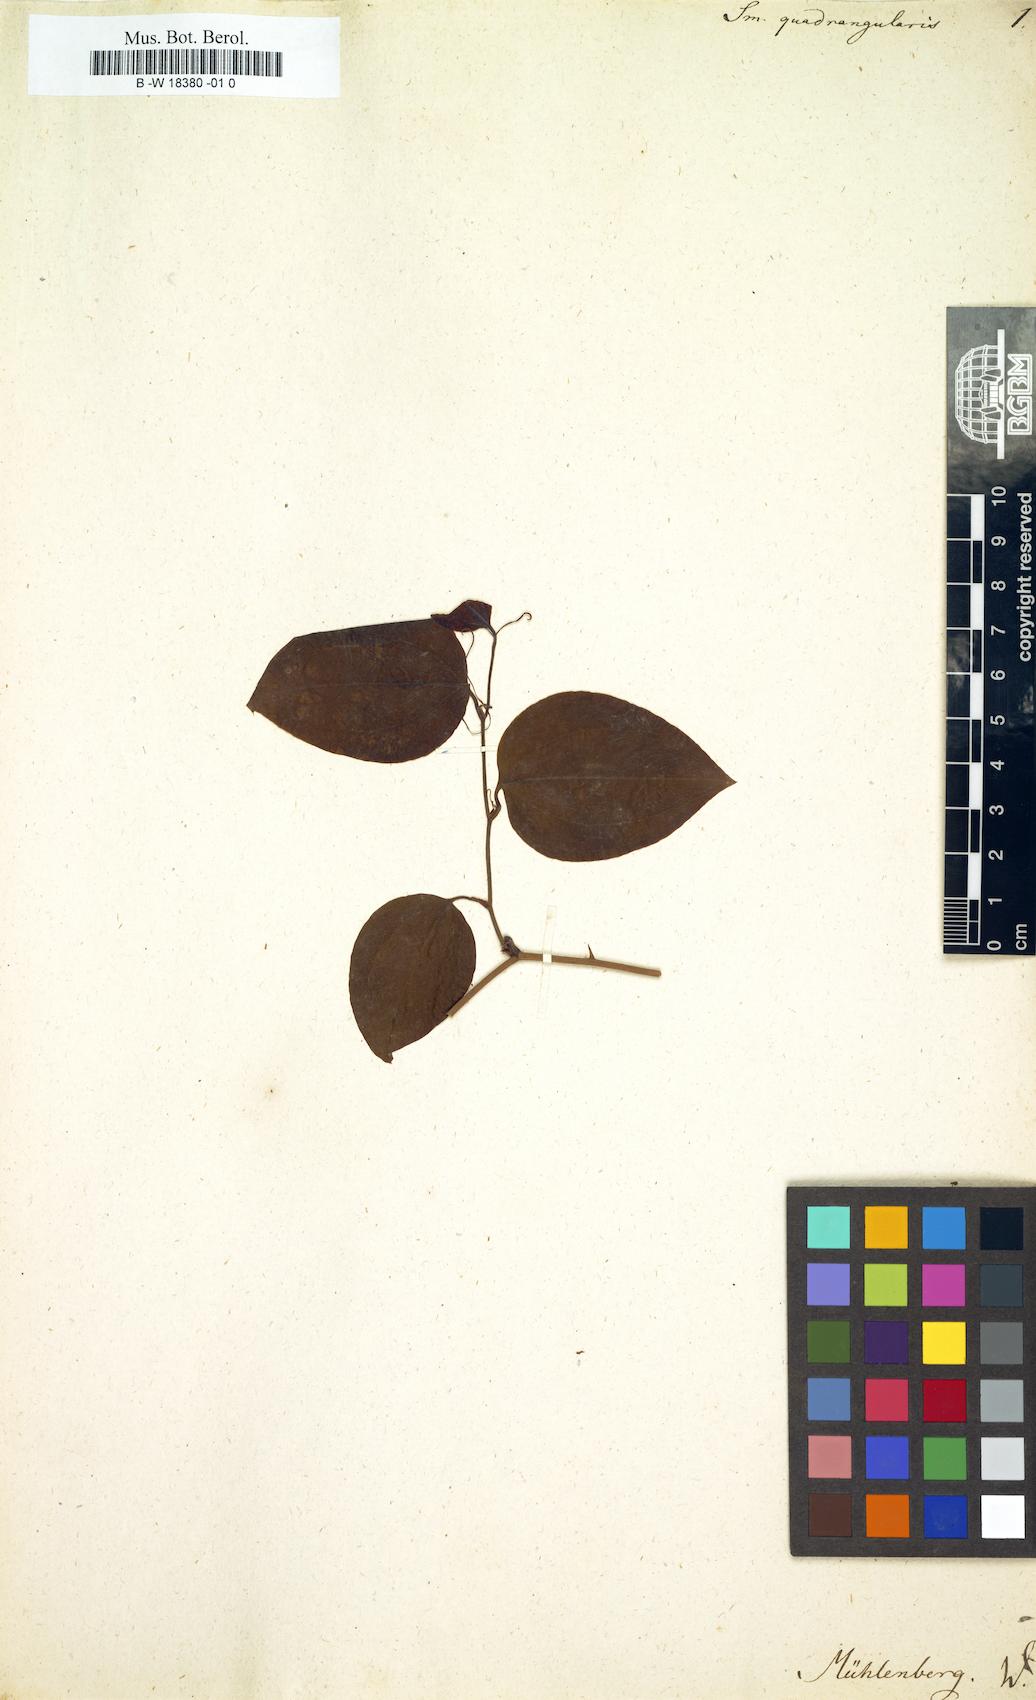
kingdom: Plantae
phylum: Tracheophyta
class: Liliopsida
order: Liliales
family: Smilacaceae
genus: Smilax
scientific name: Smilax rotundifolia
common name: Bullbriar
